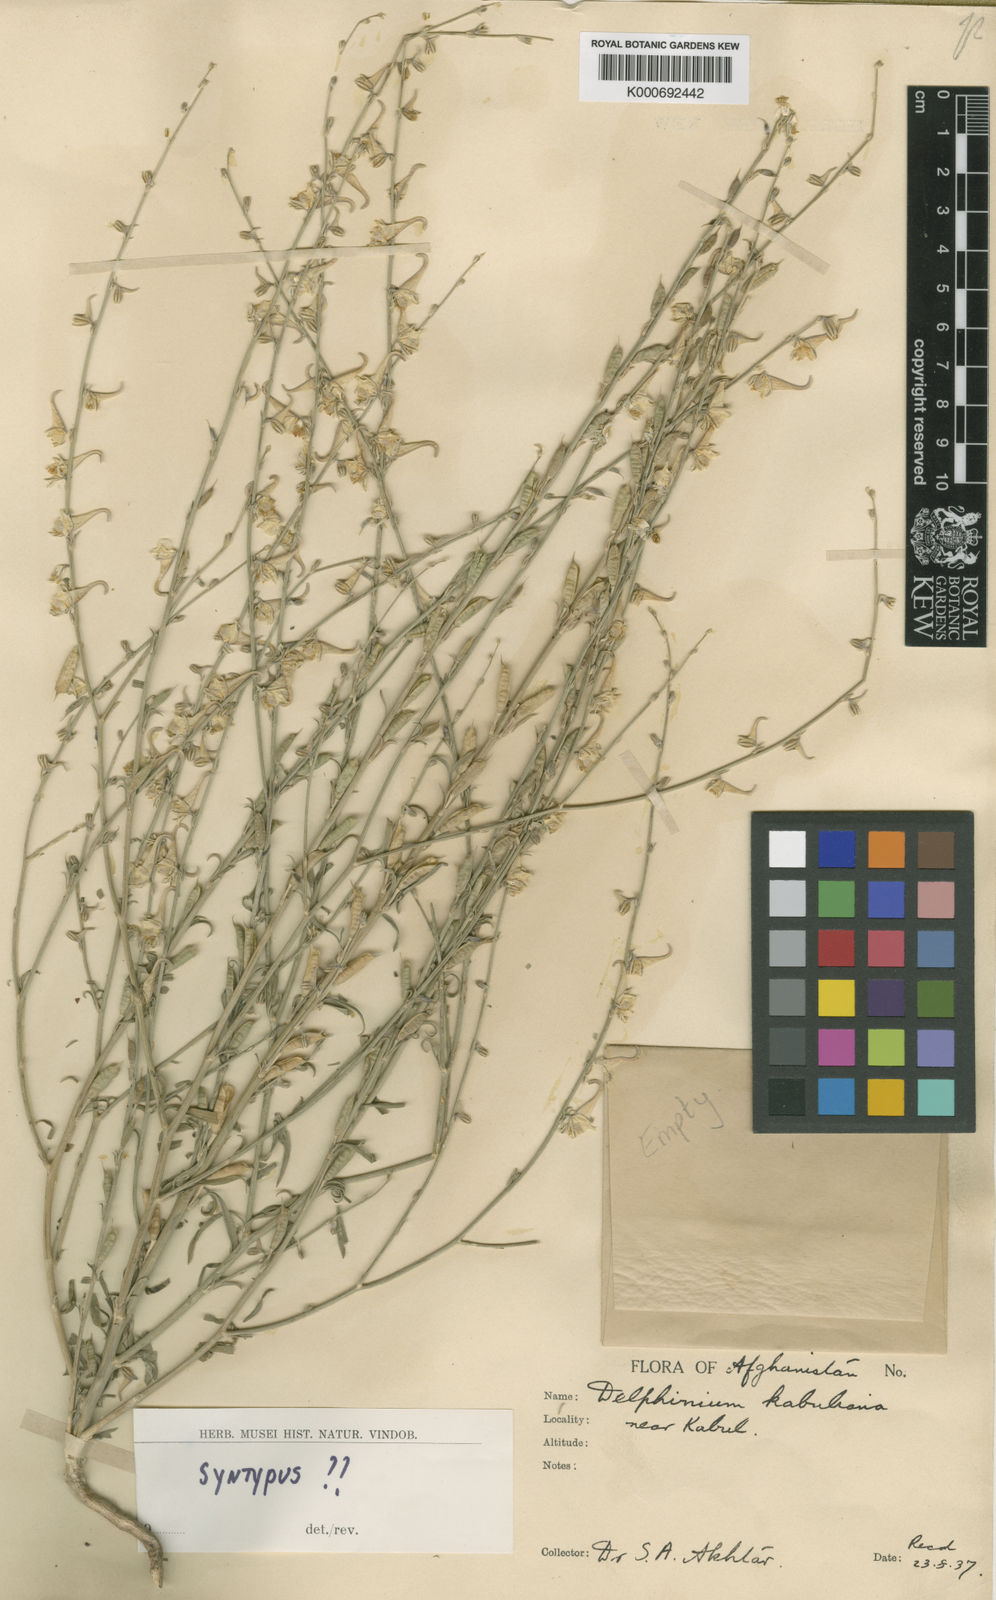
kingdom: Plantae
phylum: Tracheophyta
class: Magnoliopsida
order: Ranunculales
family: Ranunculaceae
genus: Delphinium
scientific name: Delphinium kabulianum
